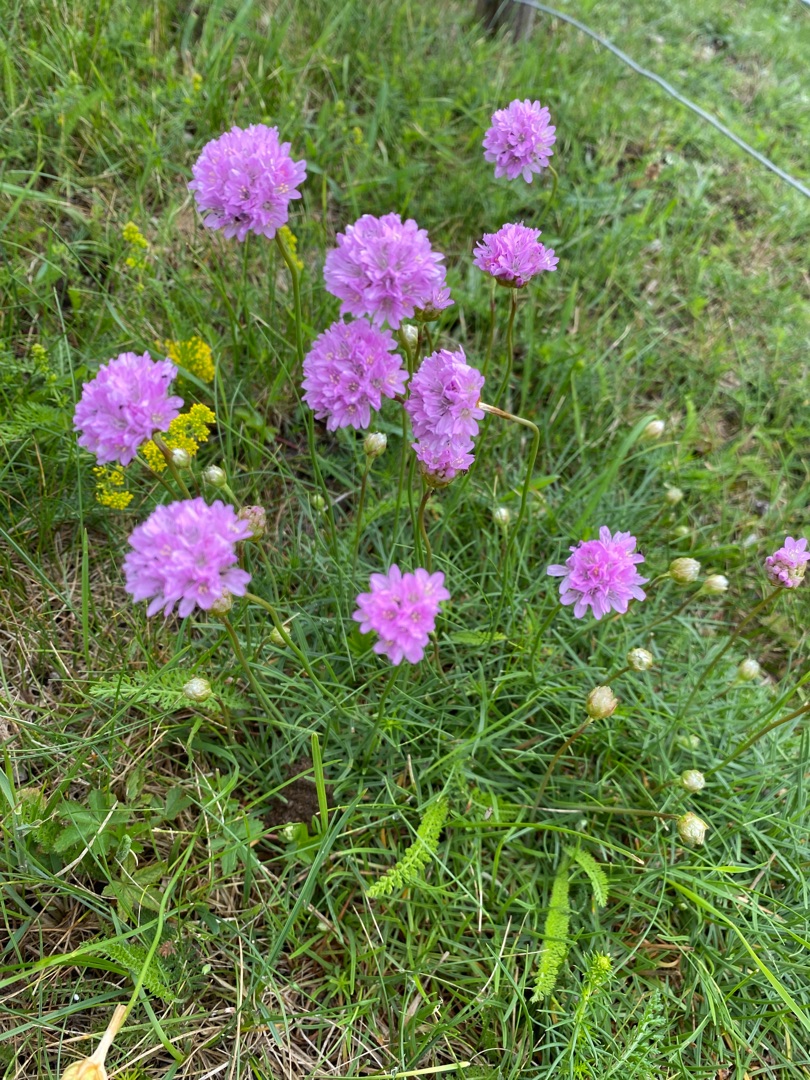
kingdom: Plantae
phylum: Tracheophyta
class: Magnoliopsida
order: Caryophyllales
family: Plumbaginaceae
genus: Armeria
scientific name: Armeria maritima
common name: Engelskgræs
